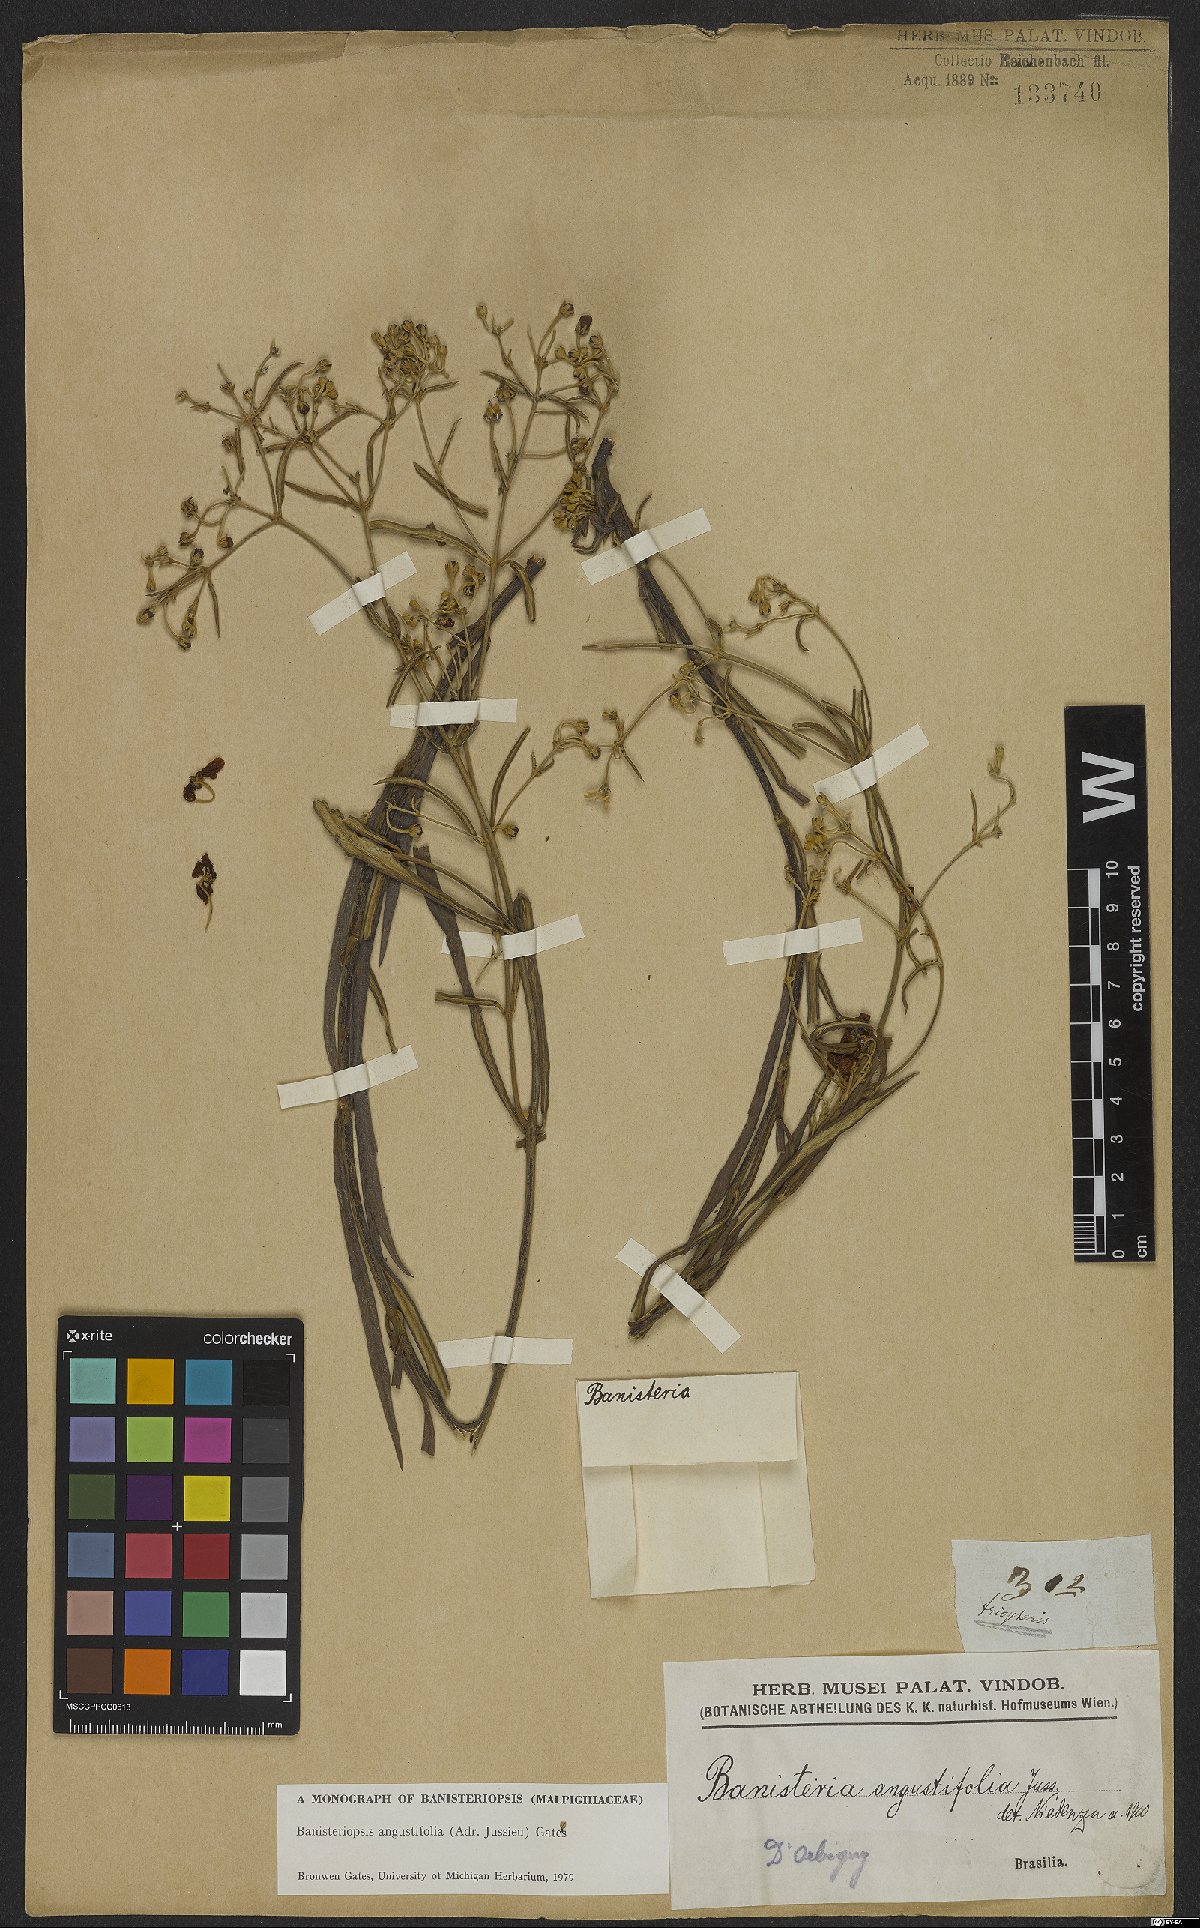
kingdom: Plantae
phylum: Tracheophyta
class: Magnoliopsida
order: Malpighiales
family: Malpighiaceae
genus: Banisteriopsis
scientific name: Banisteriopsis angustifolia
